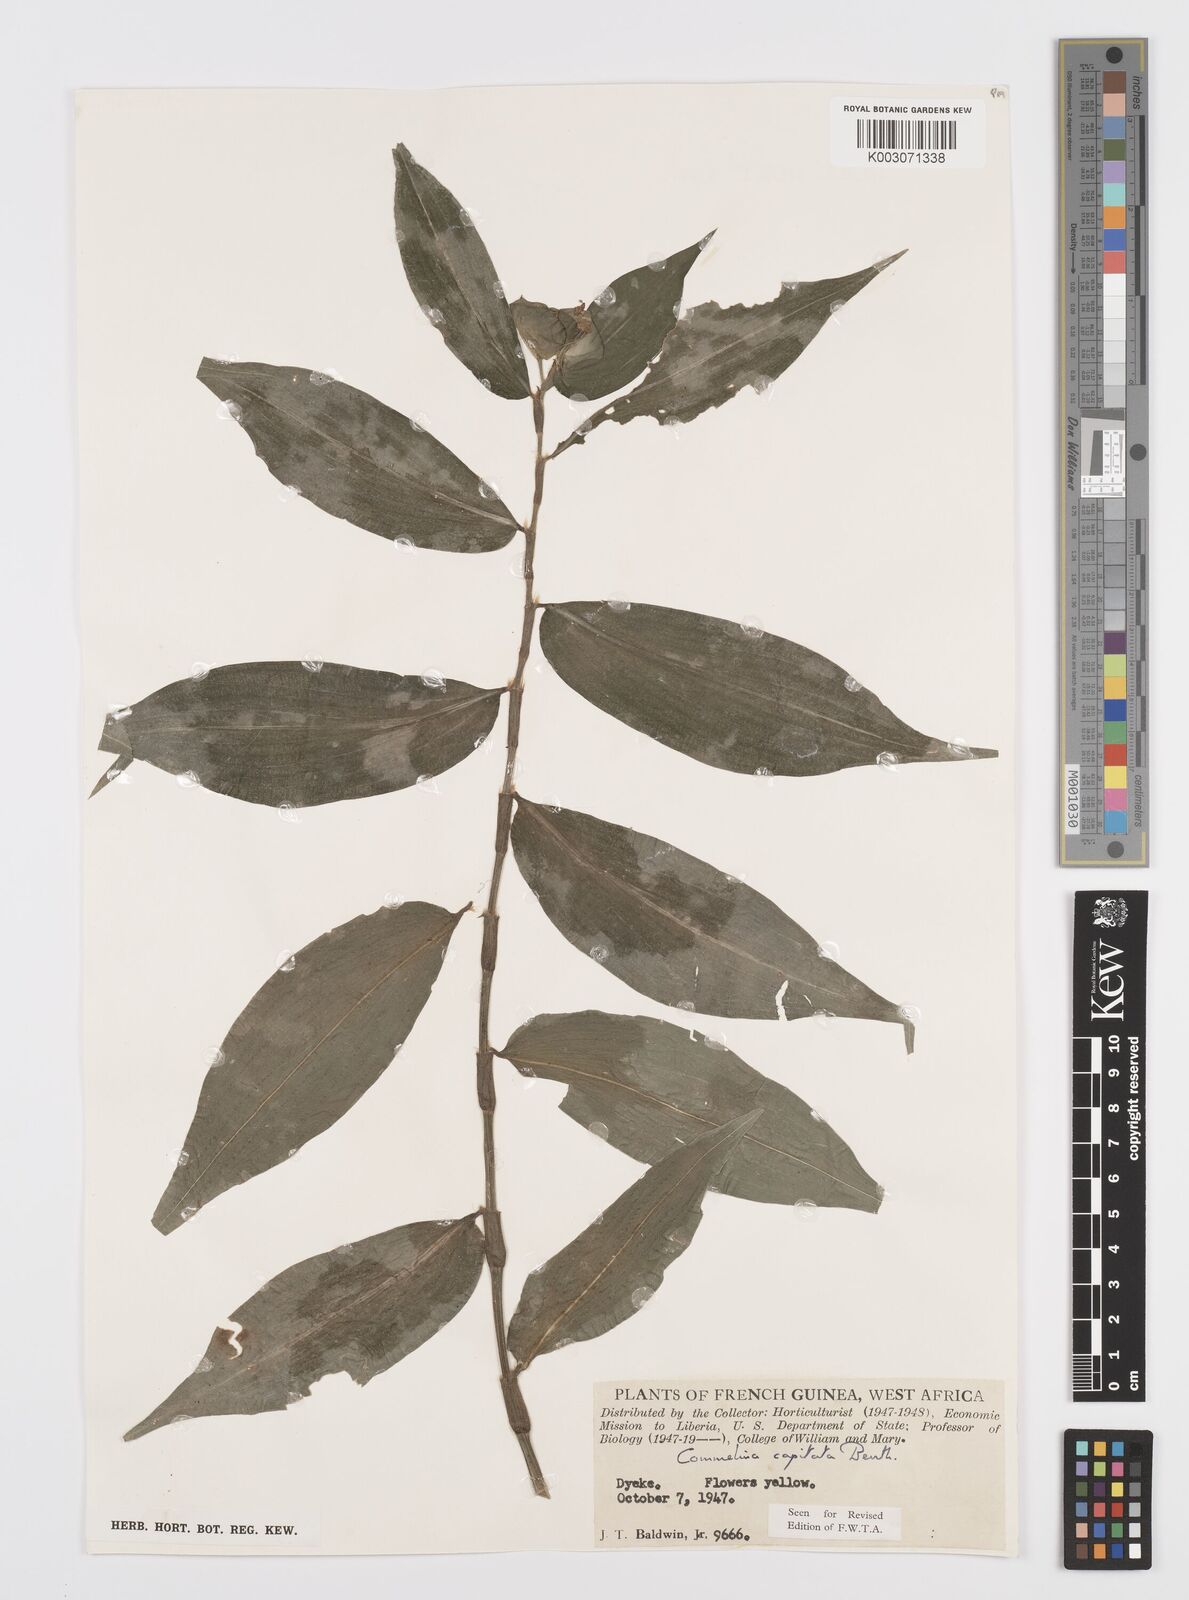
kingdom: Plantae
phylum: Tracheophyta
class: Liliopsida
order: Commelinales
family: Commelinaceae
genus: Commelina
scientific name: Commelina capitata
